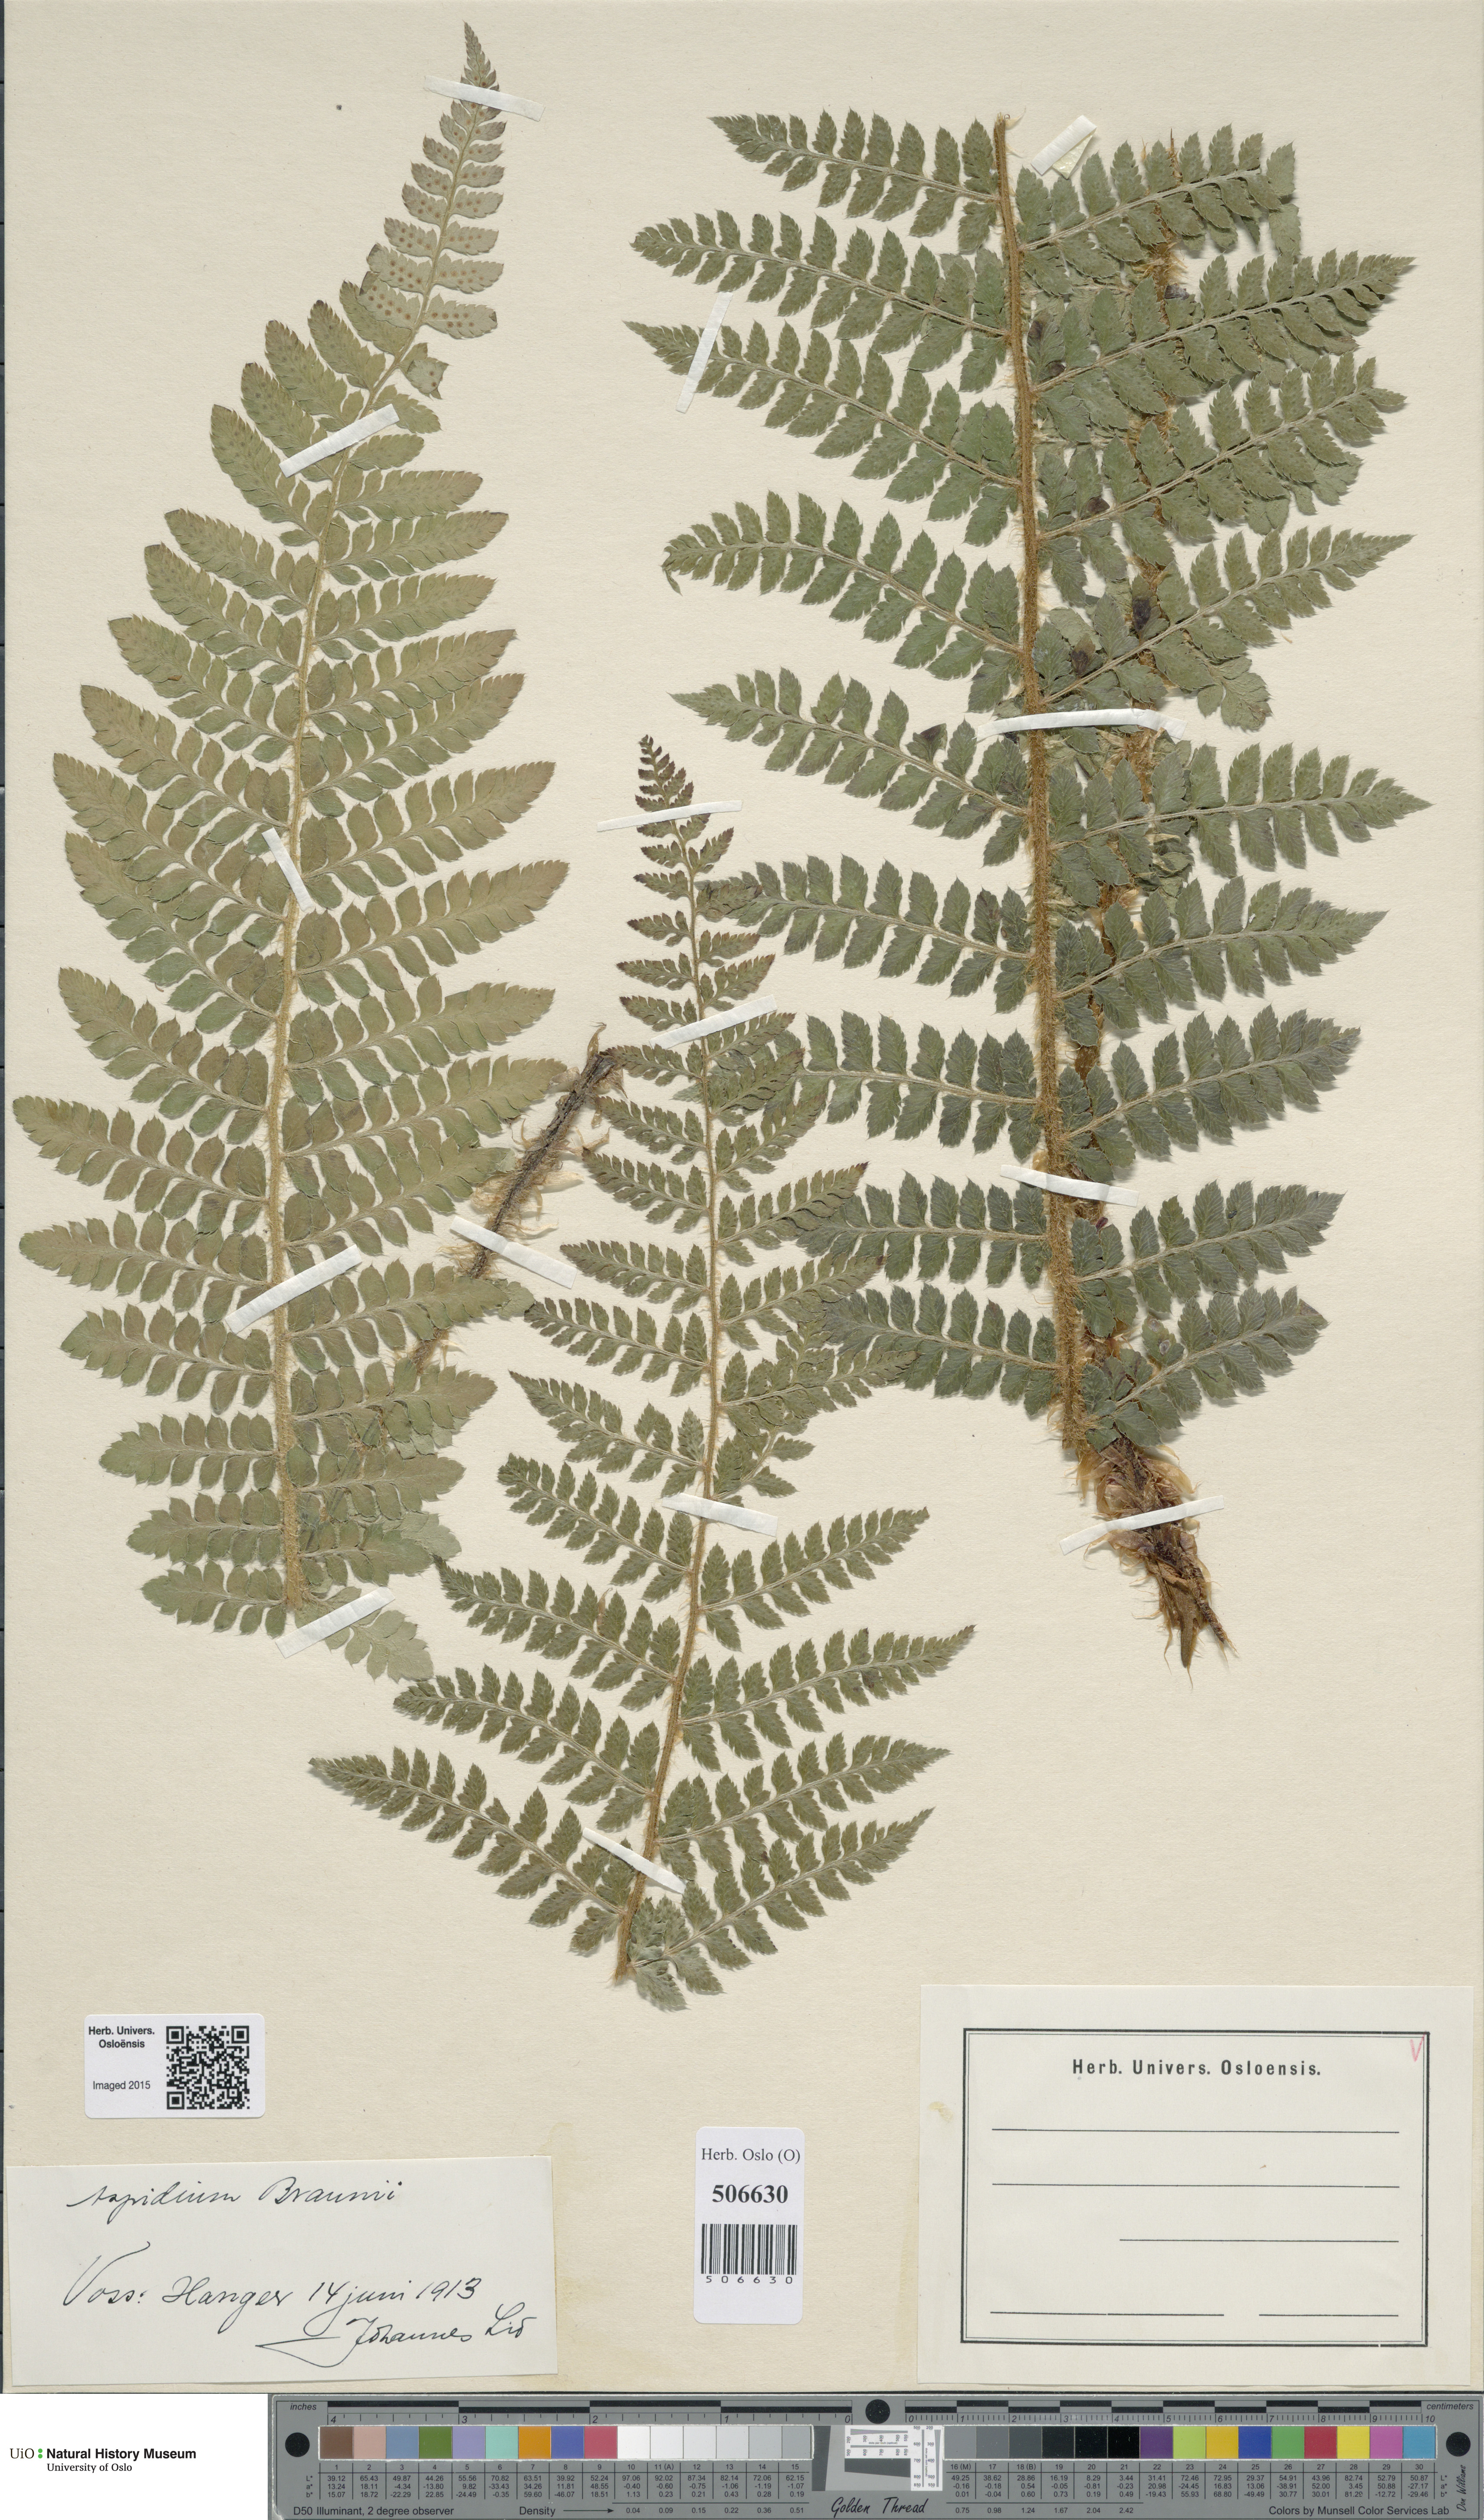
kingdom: Plantae
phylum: Tracheophyta
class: Polypodiopsida
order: Polypodiales
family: Dryopteridaceae
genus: Polystichum
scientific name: Polystichum braunii
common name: Braun's holly fern
